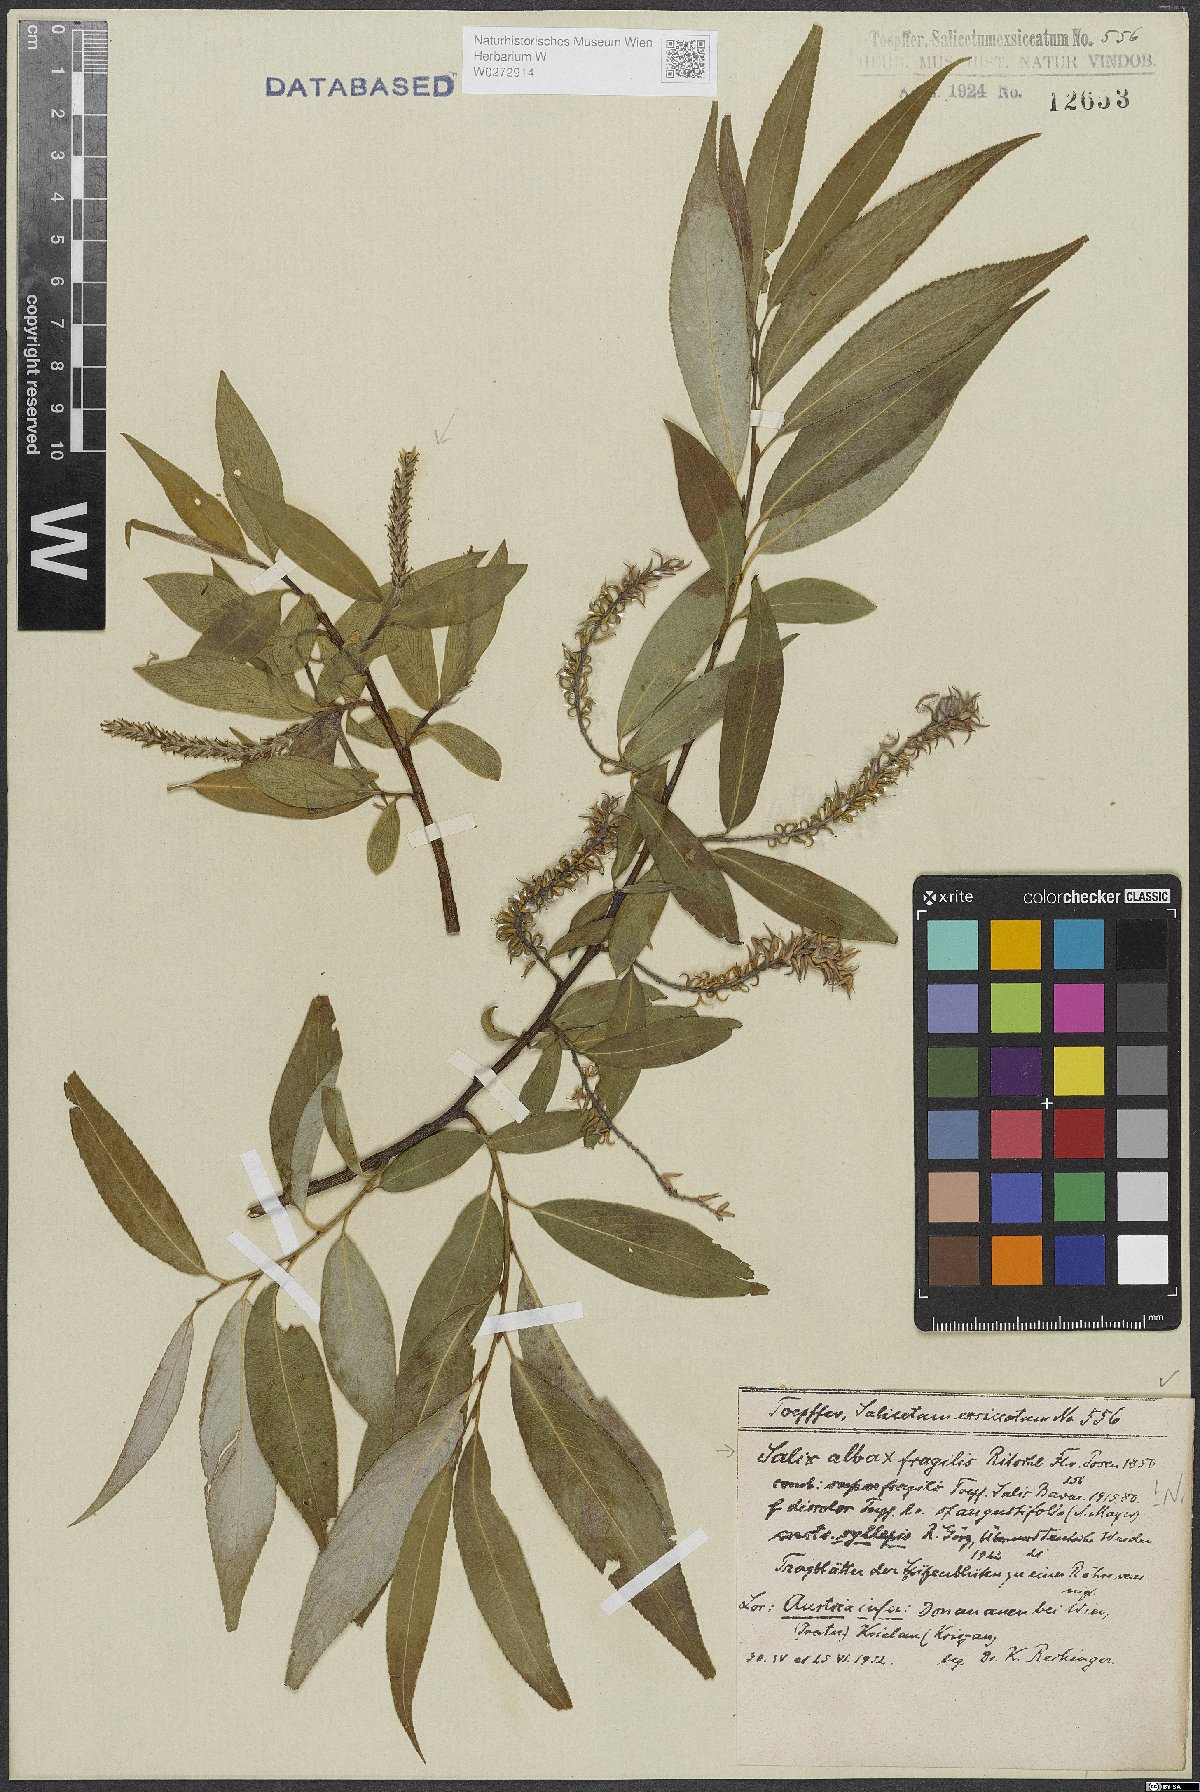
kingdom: Plantae
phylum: Tracheophyta
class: Magnoliopsida
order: Malpighiales
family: Salicaceae
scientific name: Salicaceae
